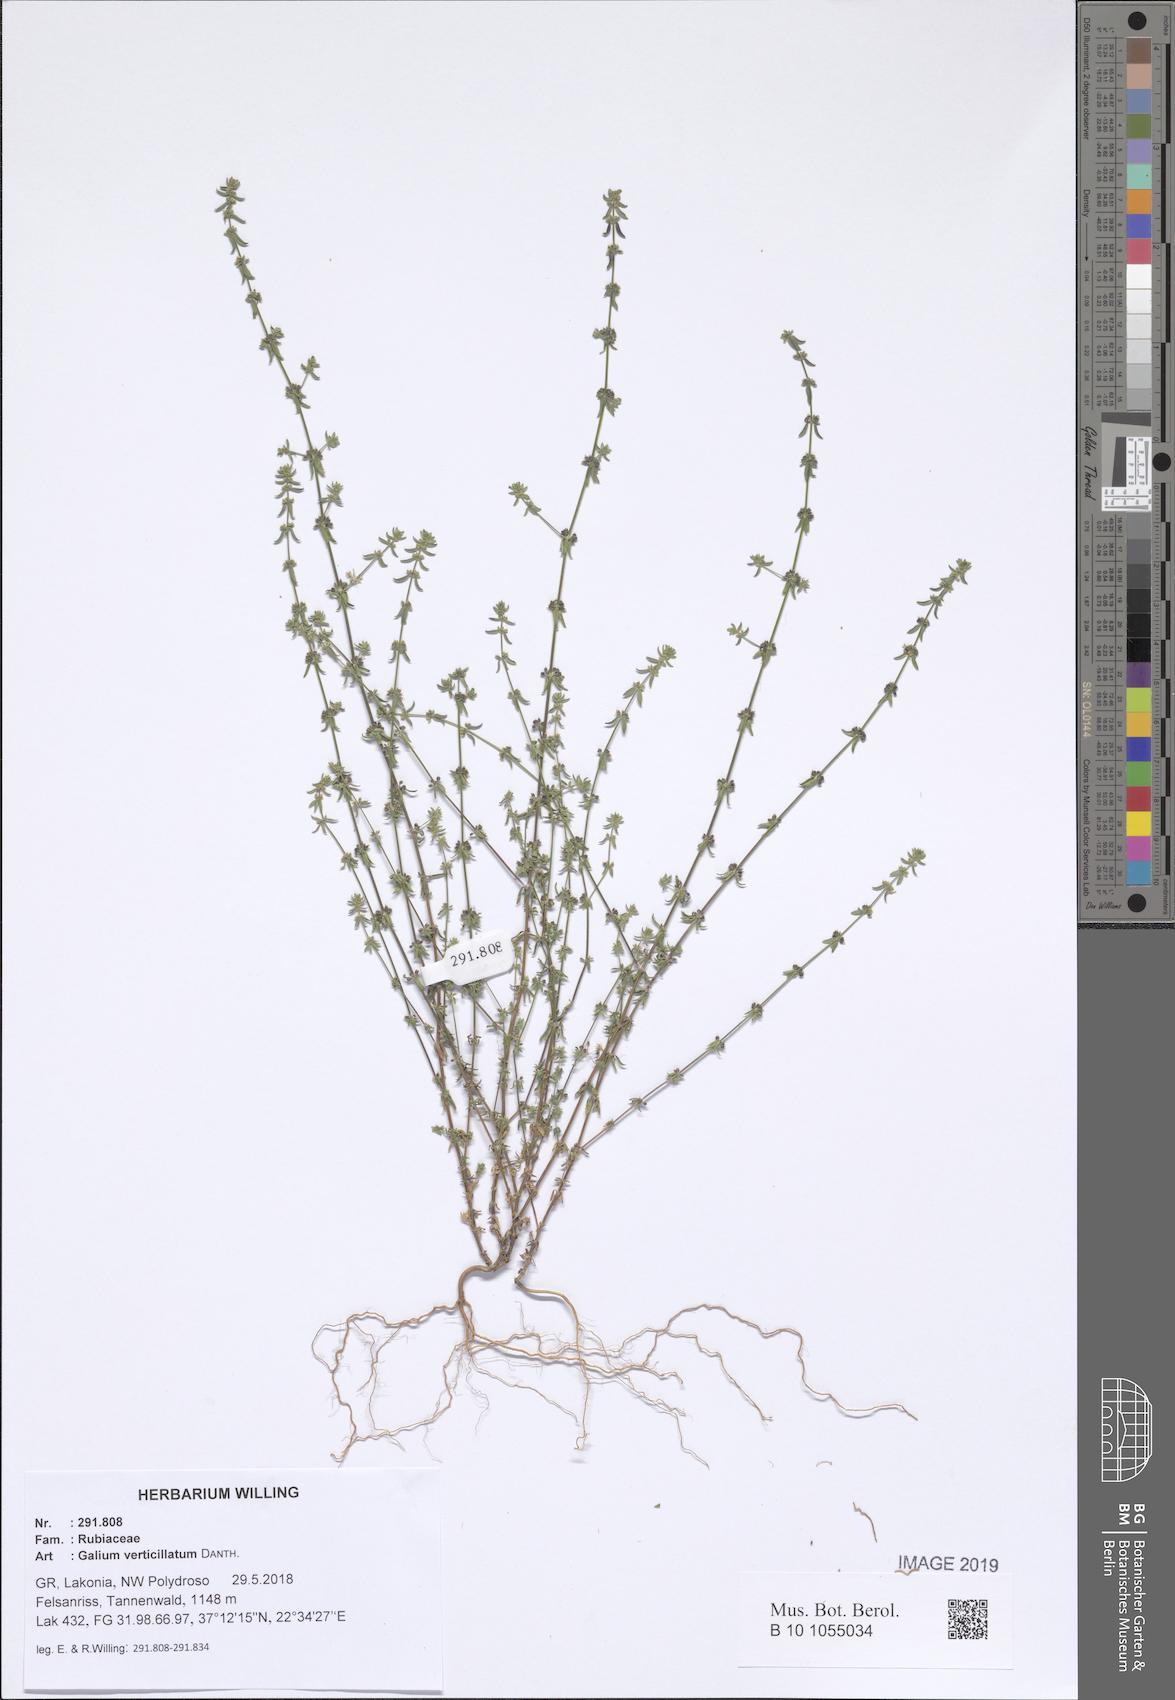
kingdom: Plantae
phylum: Tracheophyta
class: Magnoliopsida
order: Gentianales
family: Rubiaceae
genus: Galium
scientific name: Galium verticillatum
